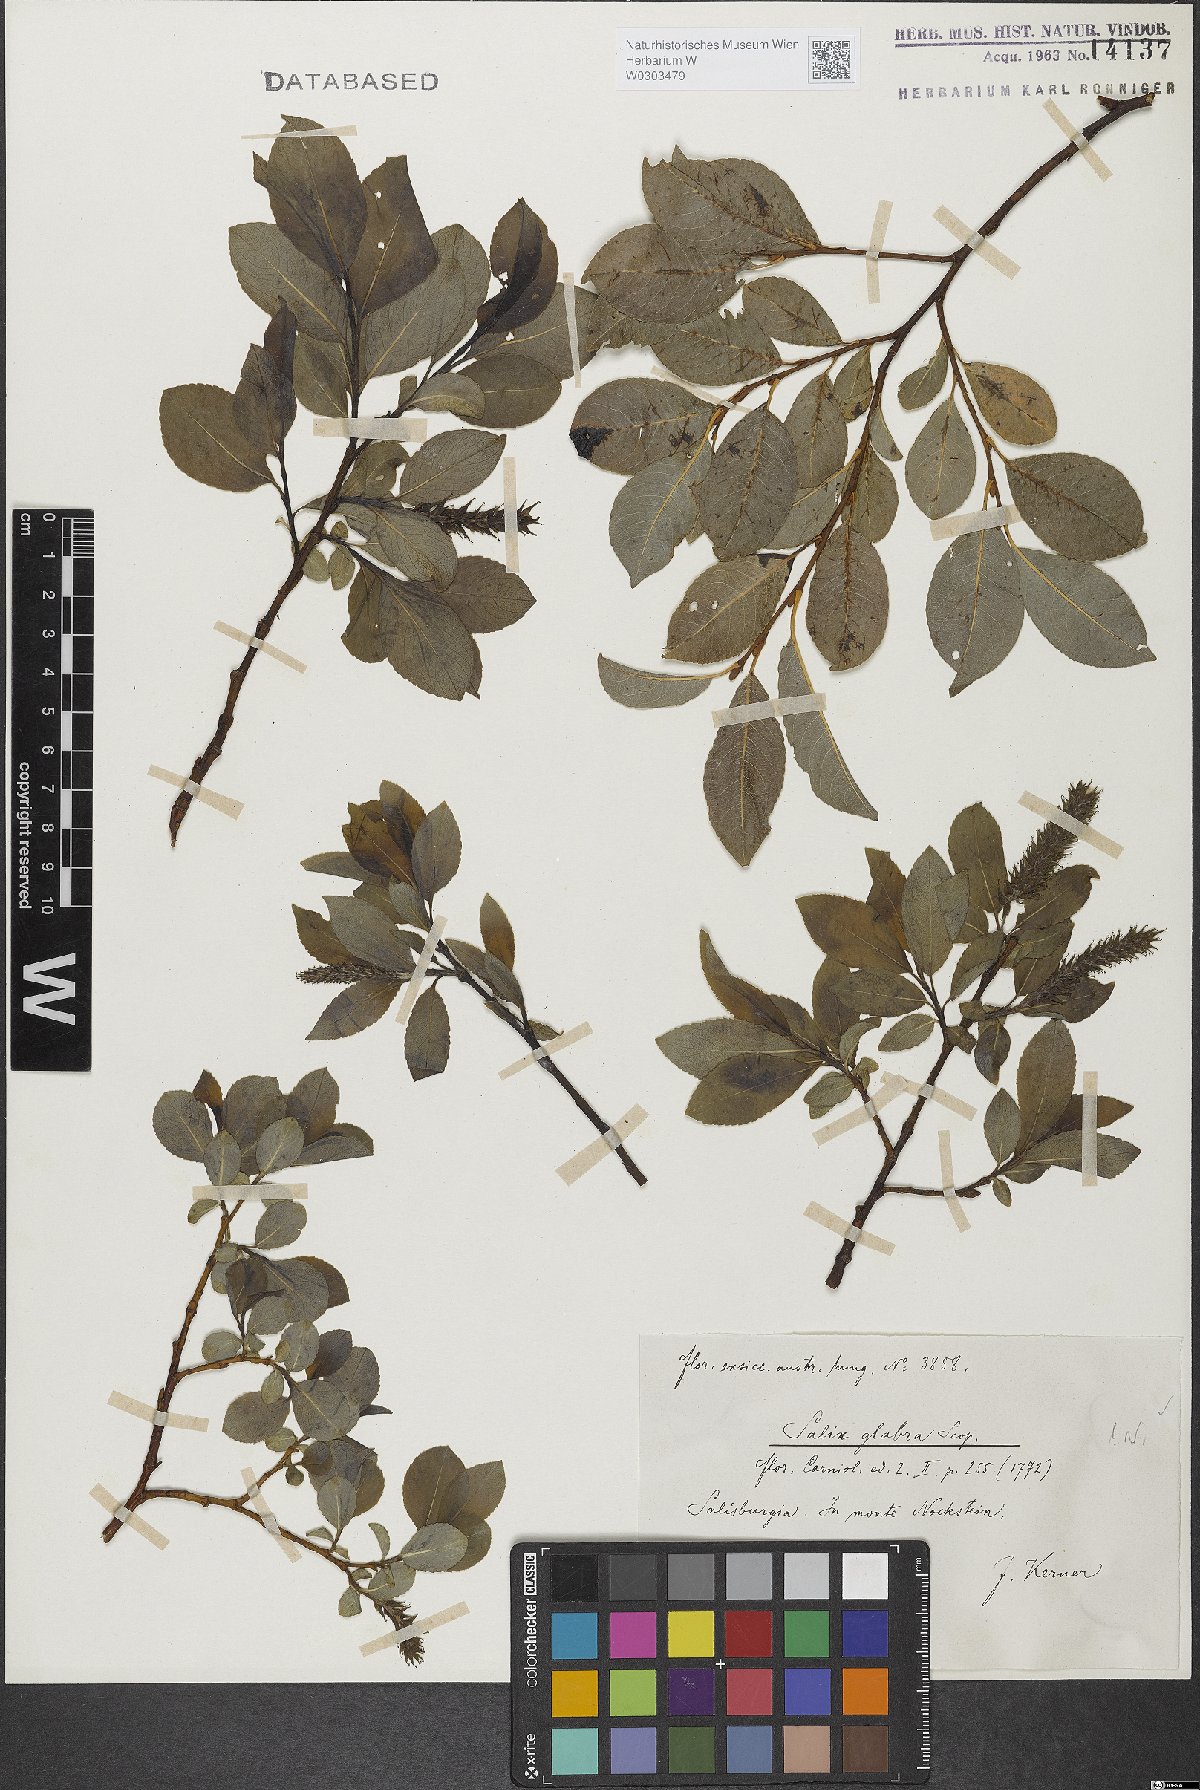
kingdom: Plantae
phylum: Tracheophyta
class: Magnoliopsida
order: Malpighiales
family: Salicaceae
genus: Salix
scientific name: Salix glabra
